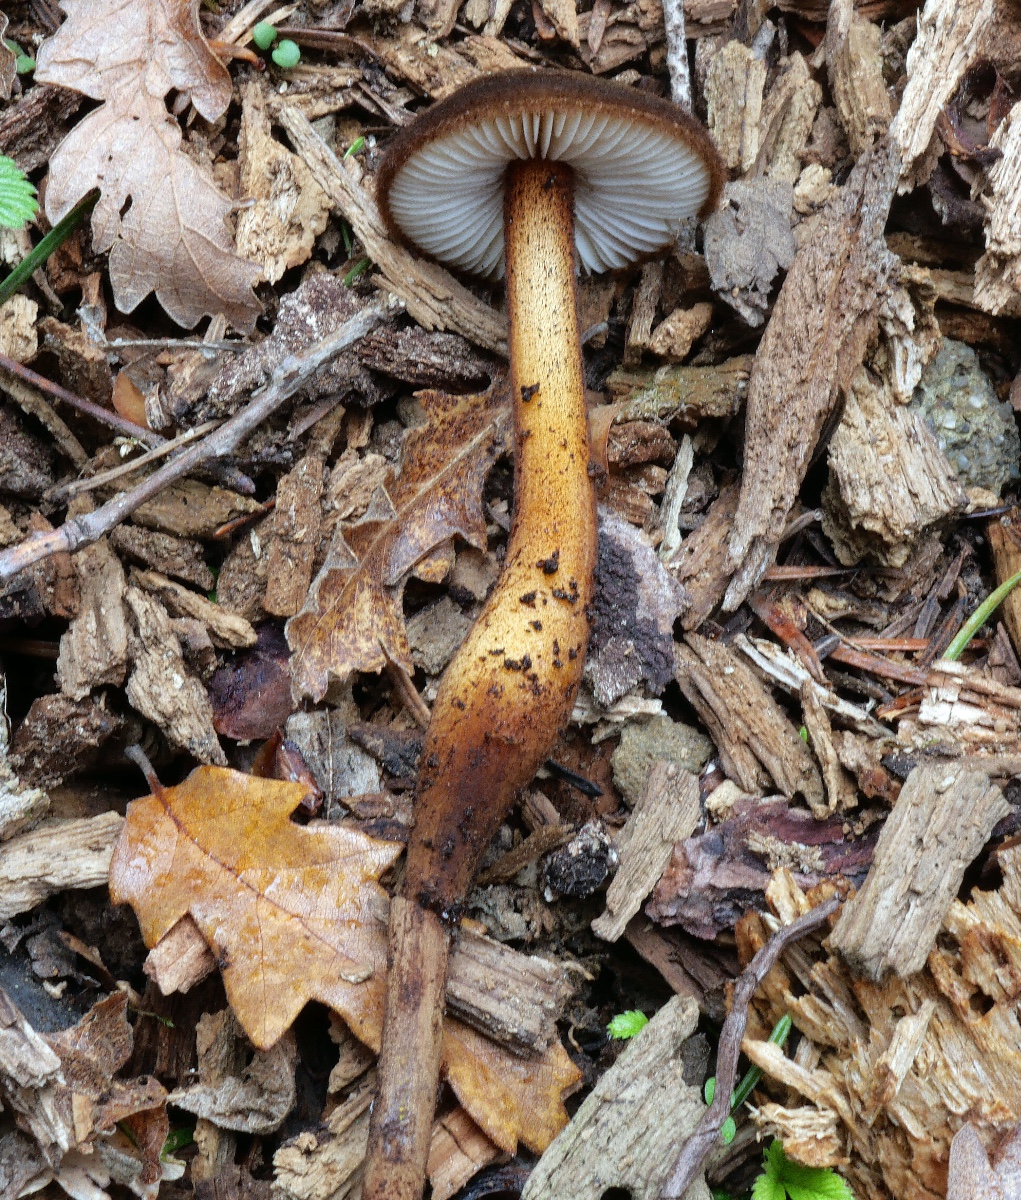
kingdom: Fungi
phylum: Basidiomycota
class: Agaricomycetes
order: Agaricales
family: Physalacriaceae
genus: Oudemansiella
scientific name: Oudemansiella melanotricha
